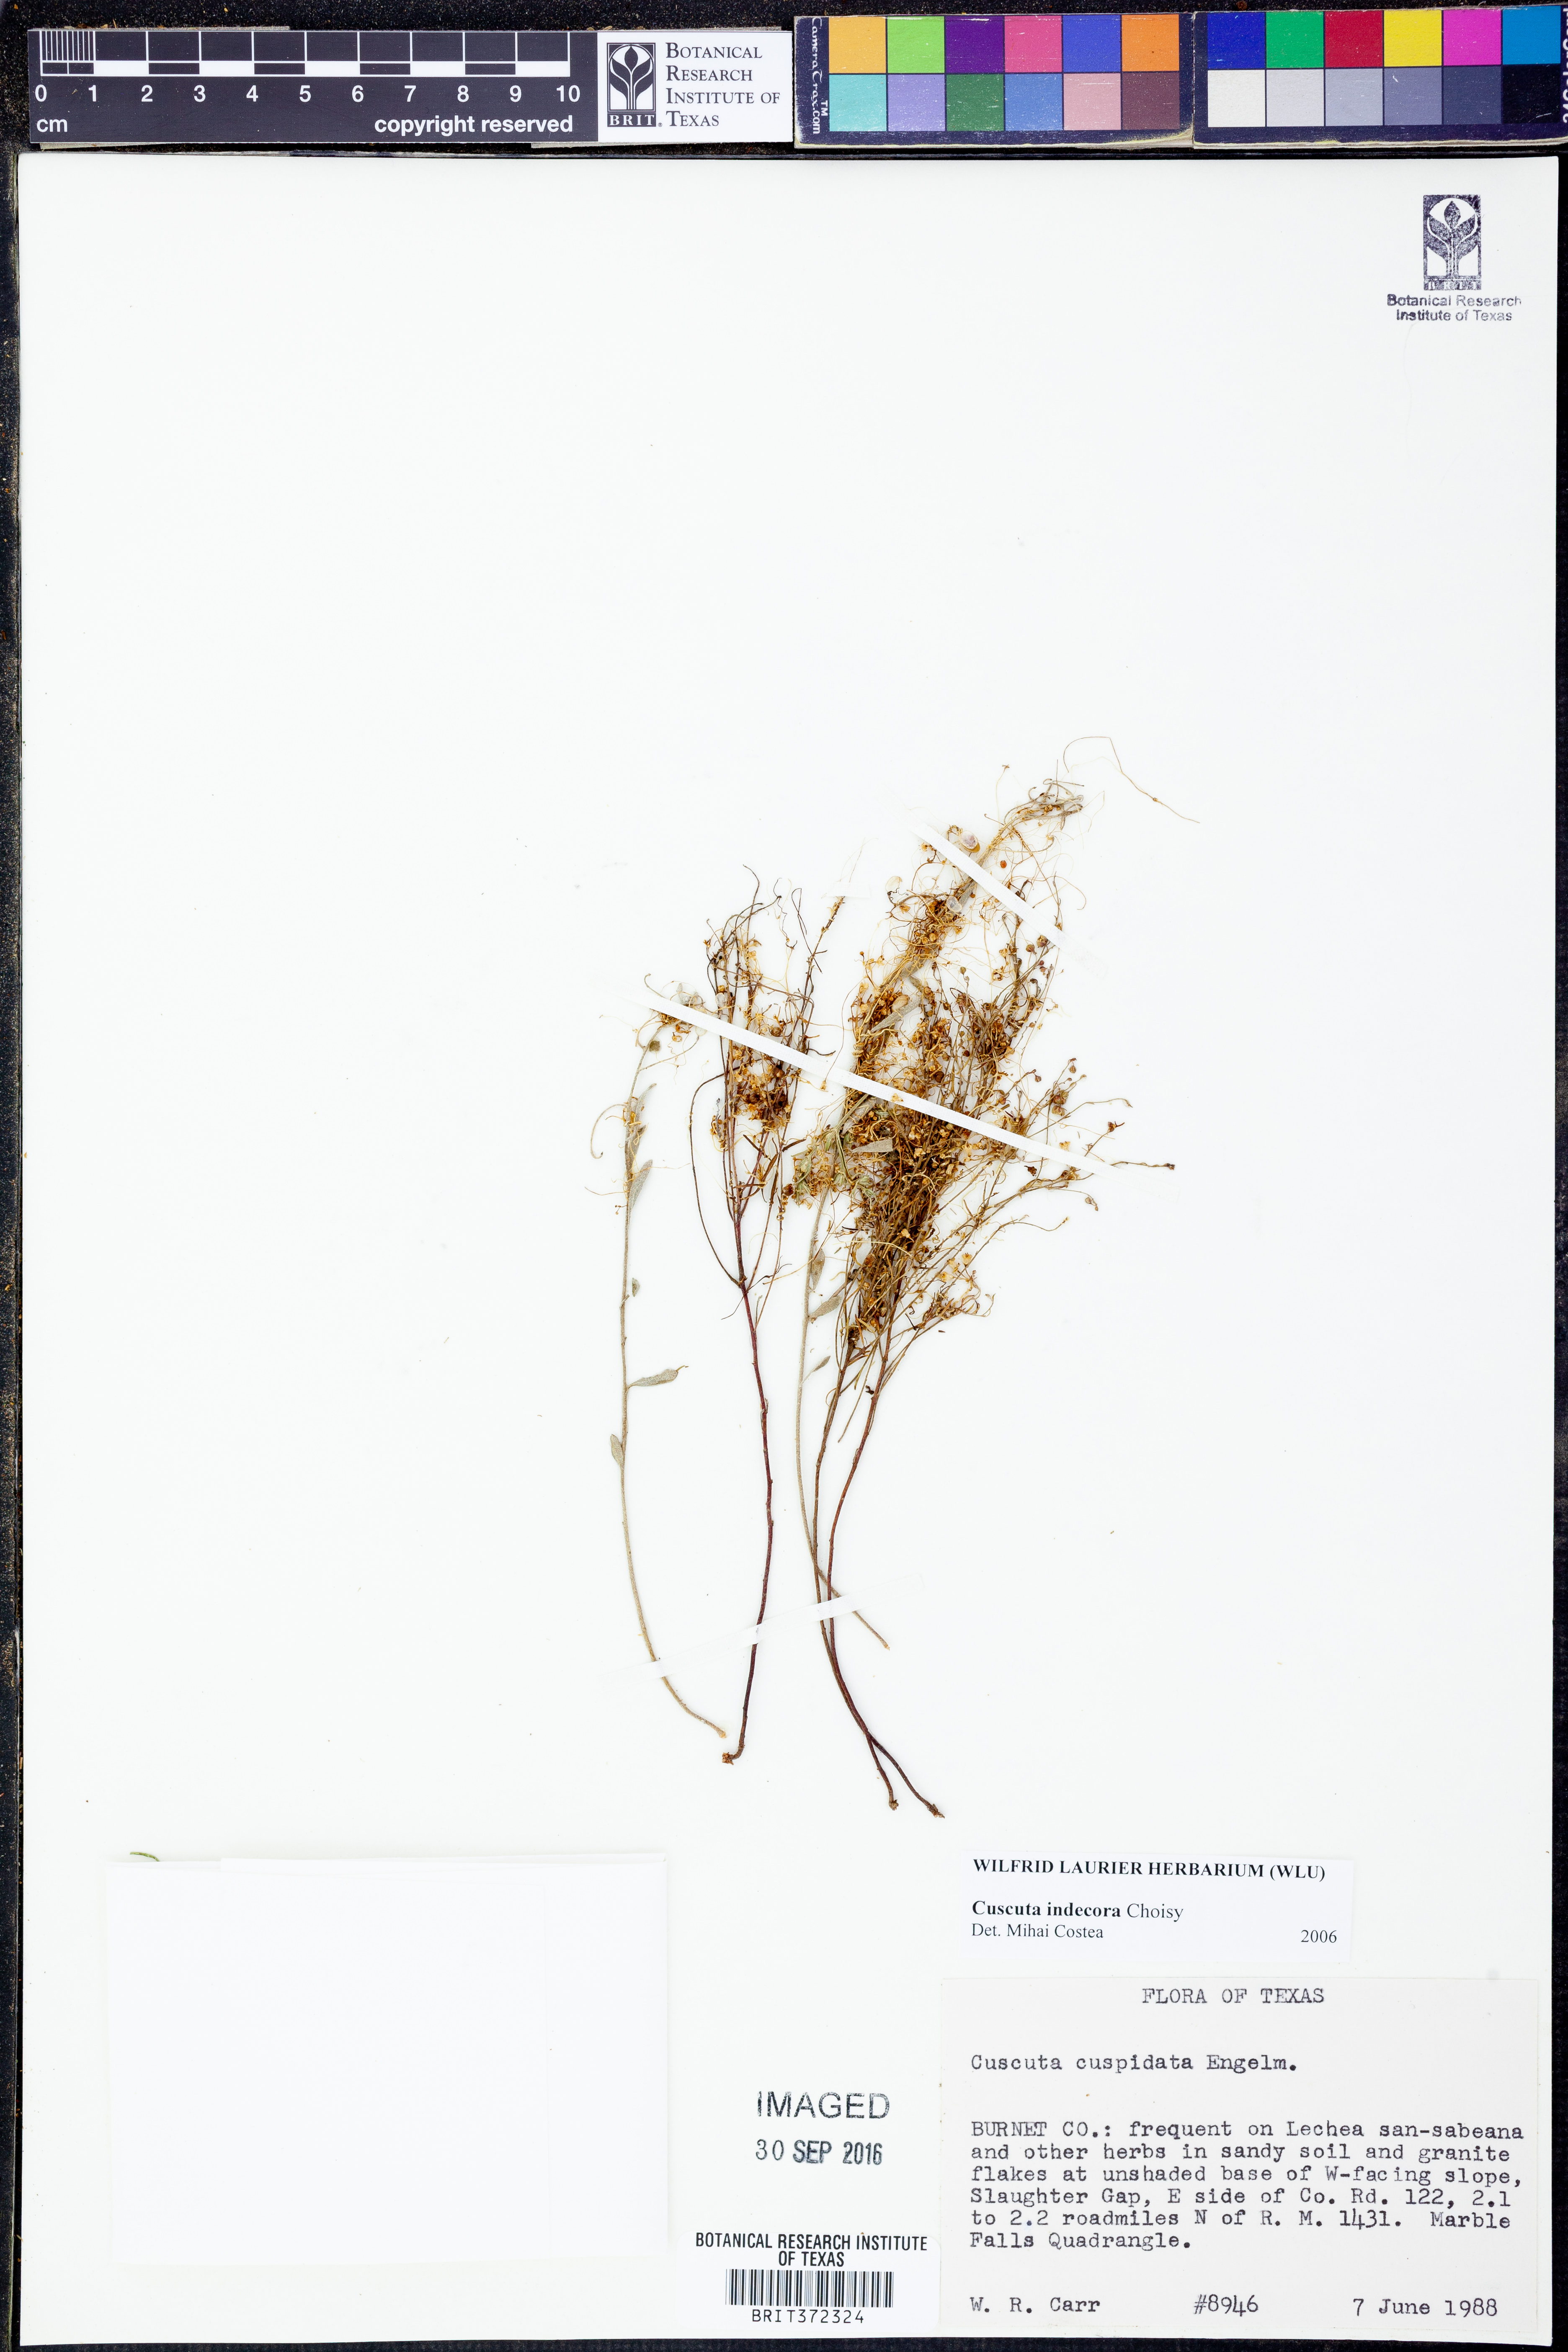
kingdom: Plantae
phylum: Tracheophyta
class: Magnoliopsida
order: Solanales
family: Convolvulaceae
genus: Cuscuta
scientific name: Cuscuta indecora
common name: Large-seed dodder
